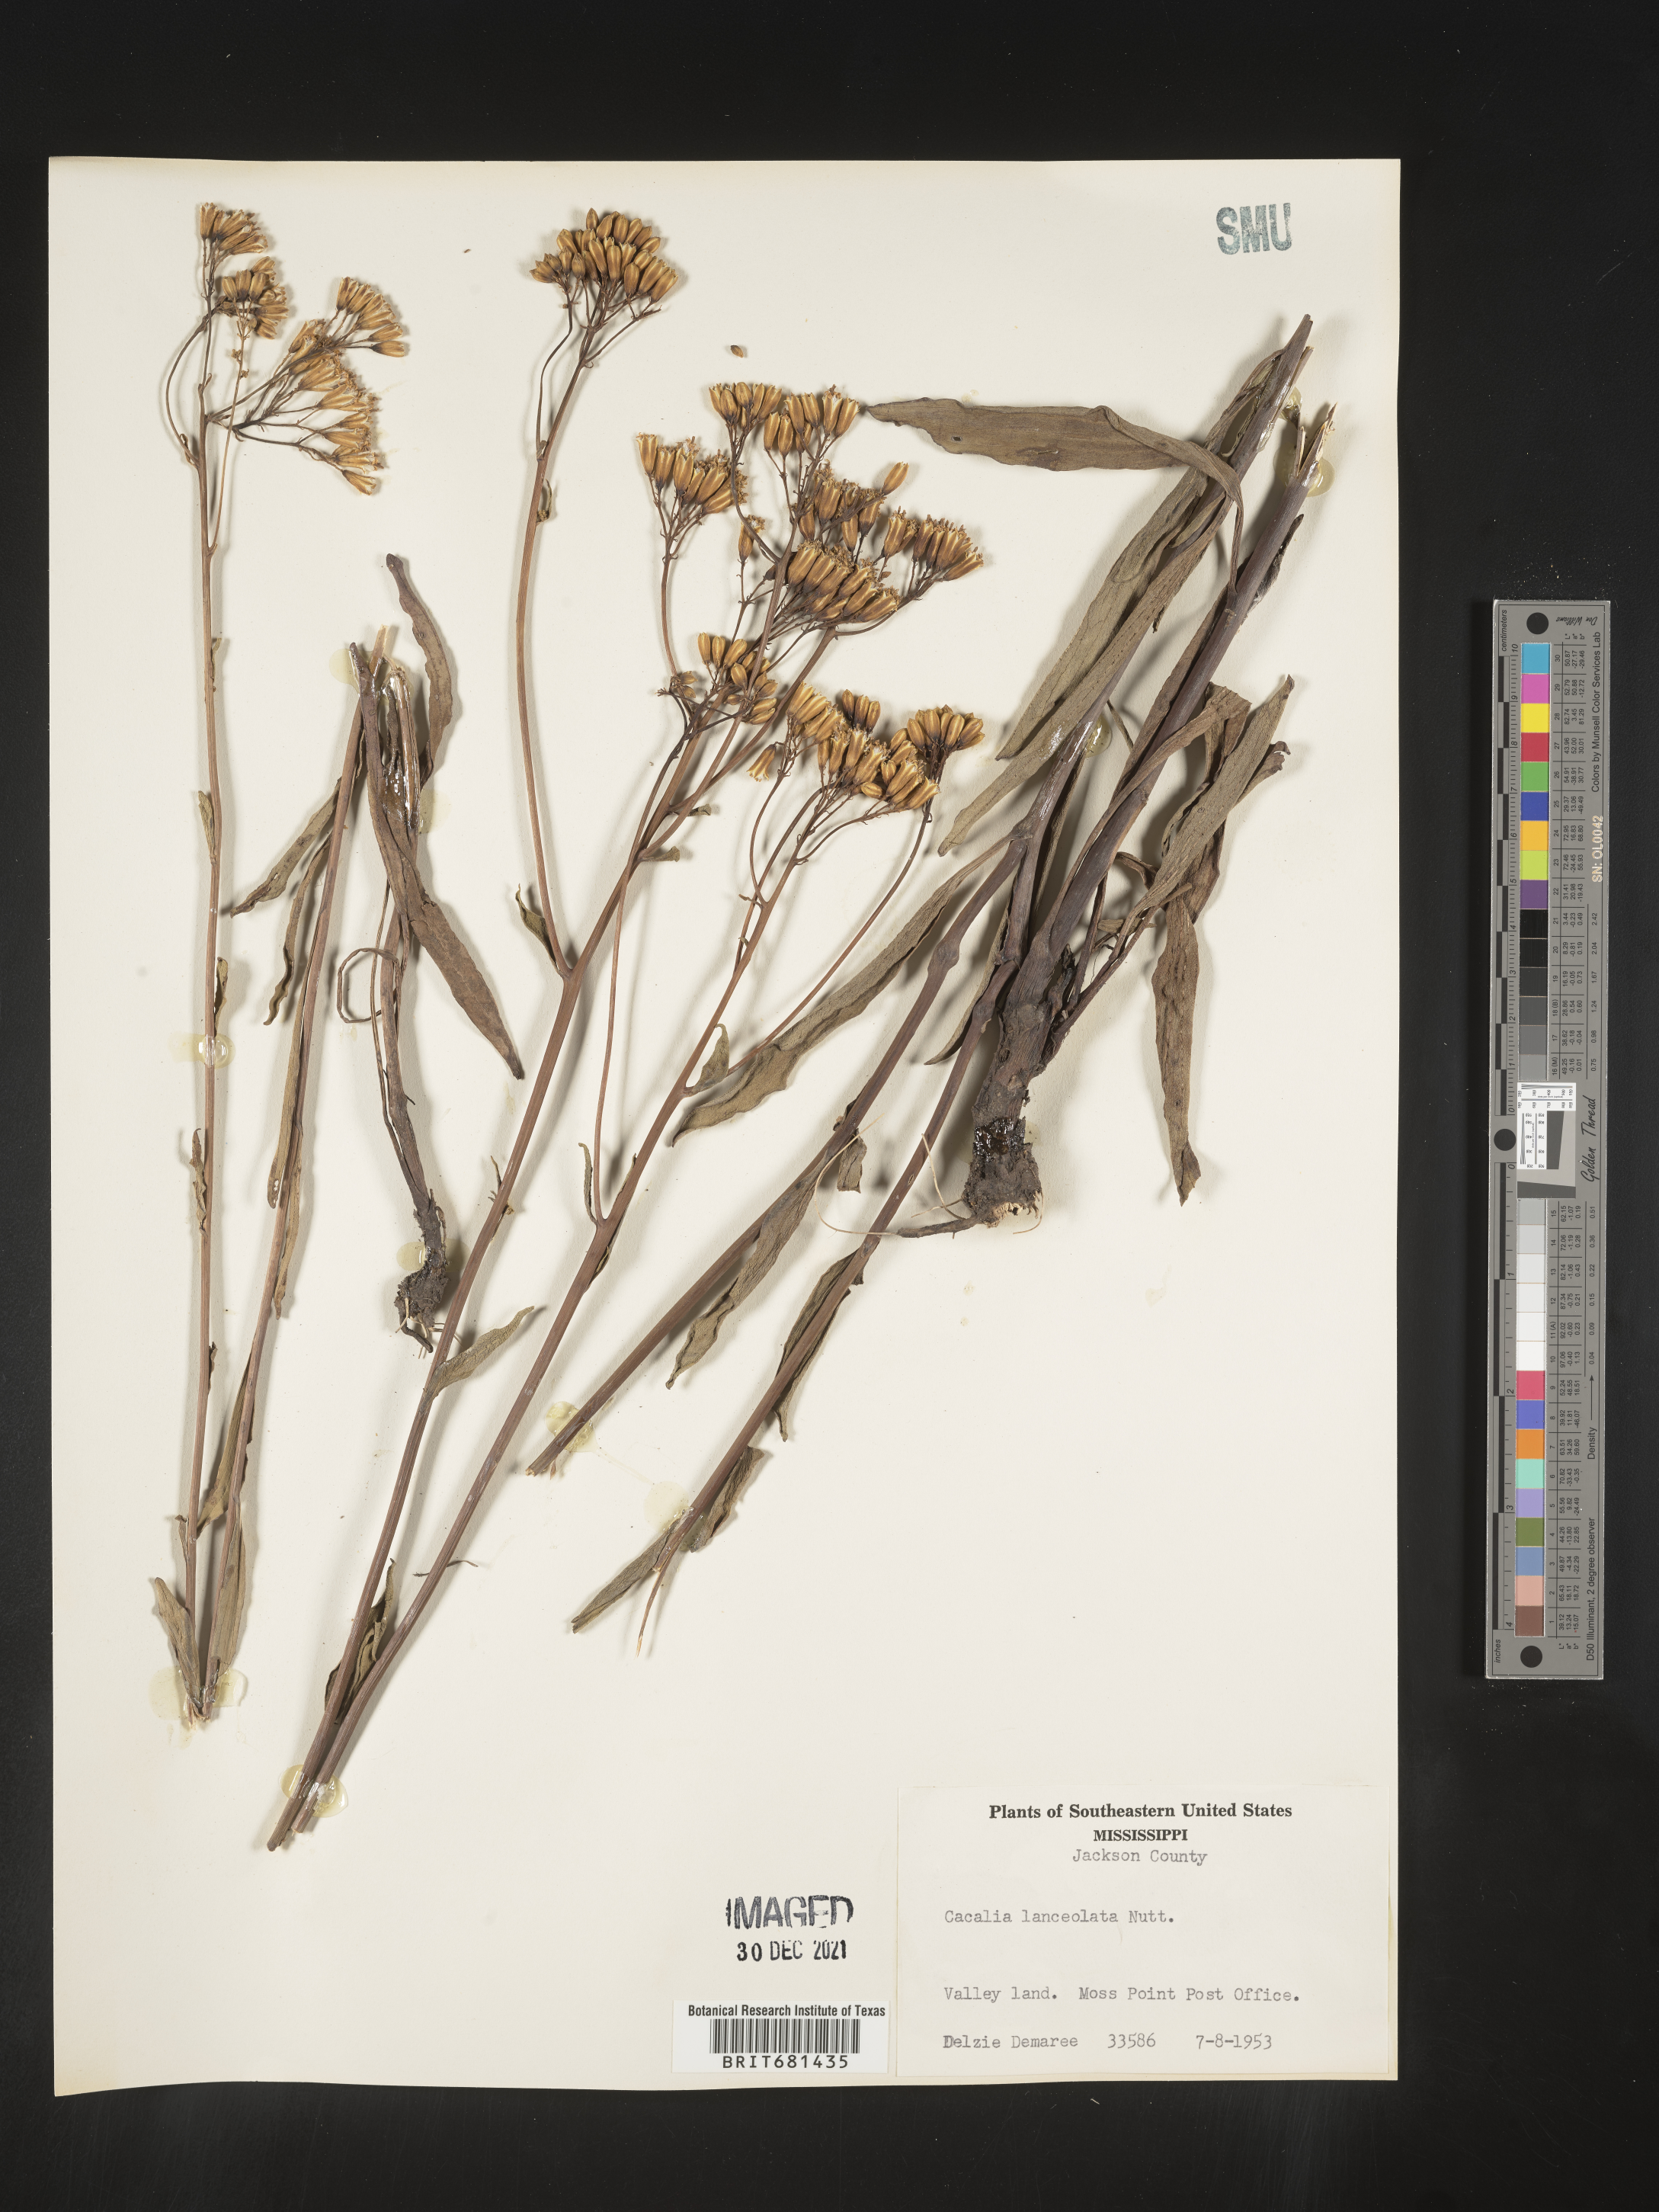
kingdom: Plantae
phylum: Tracheophyta
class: Magnoliopsida
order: Asterales
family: Asteraceae
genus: Arnoglossum
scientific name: Arnoglossum ovatum
